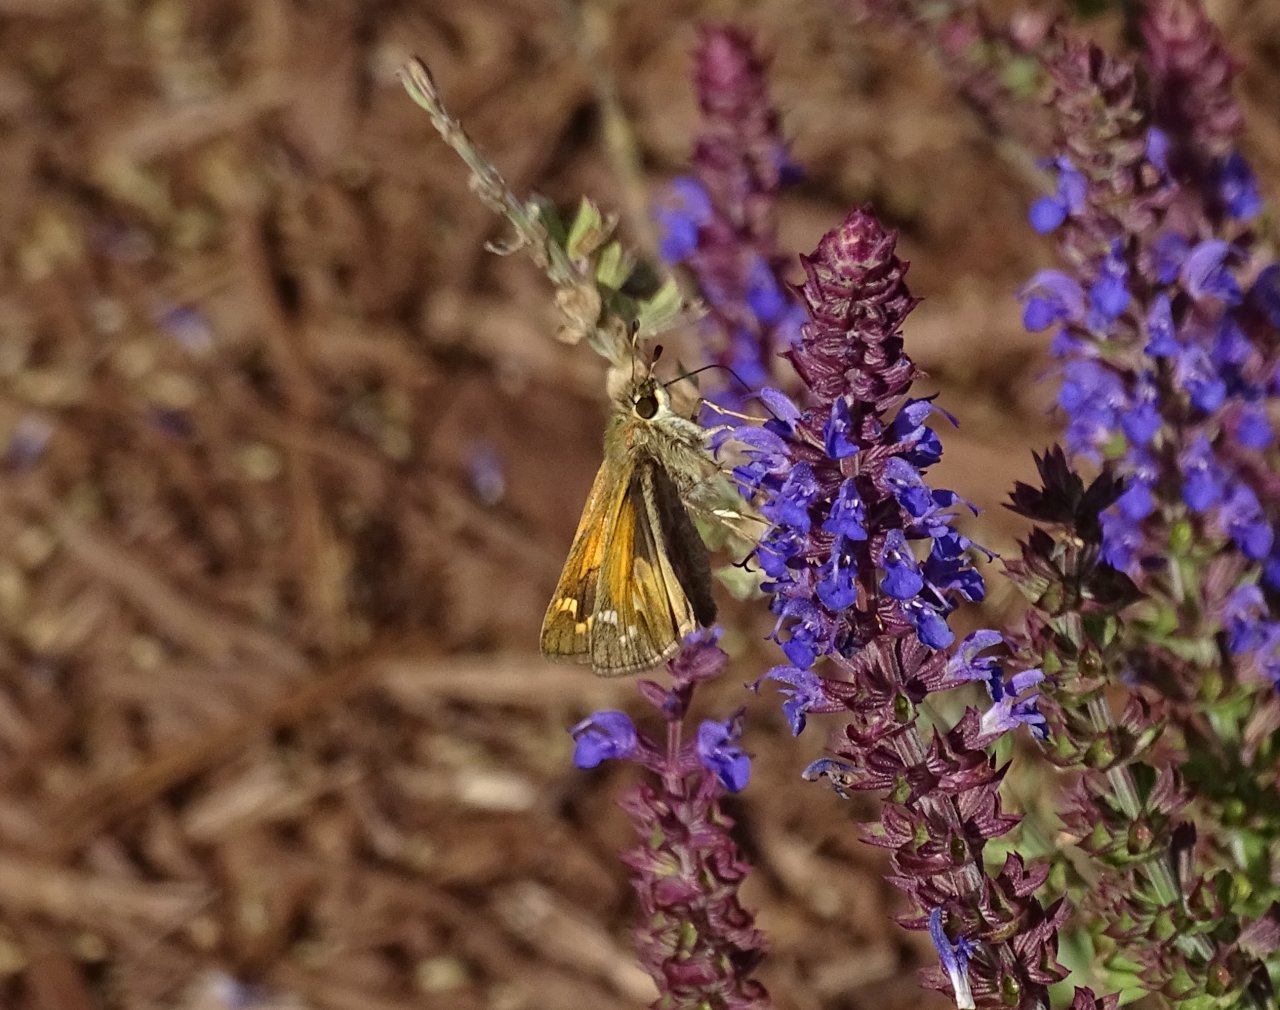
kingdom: Animalia
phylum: Arthropoda
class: Insecta
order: Lepidoptera
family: Hesperiidae
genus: Atalopedes
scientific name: Atalopedes campestris
